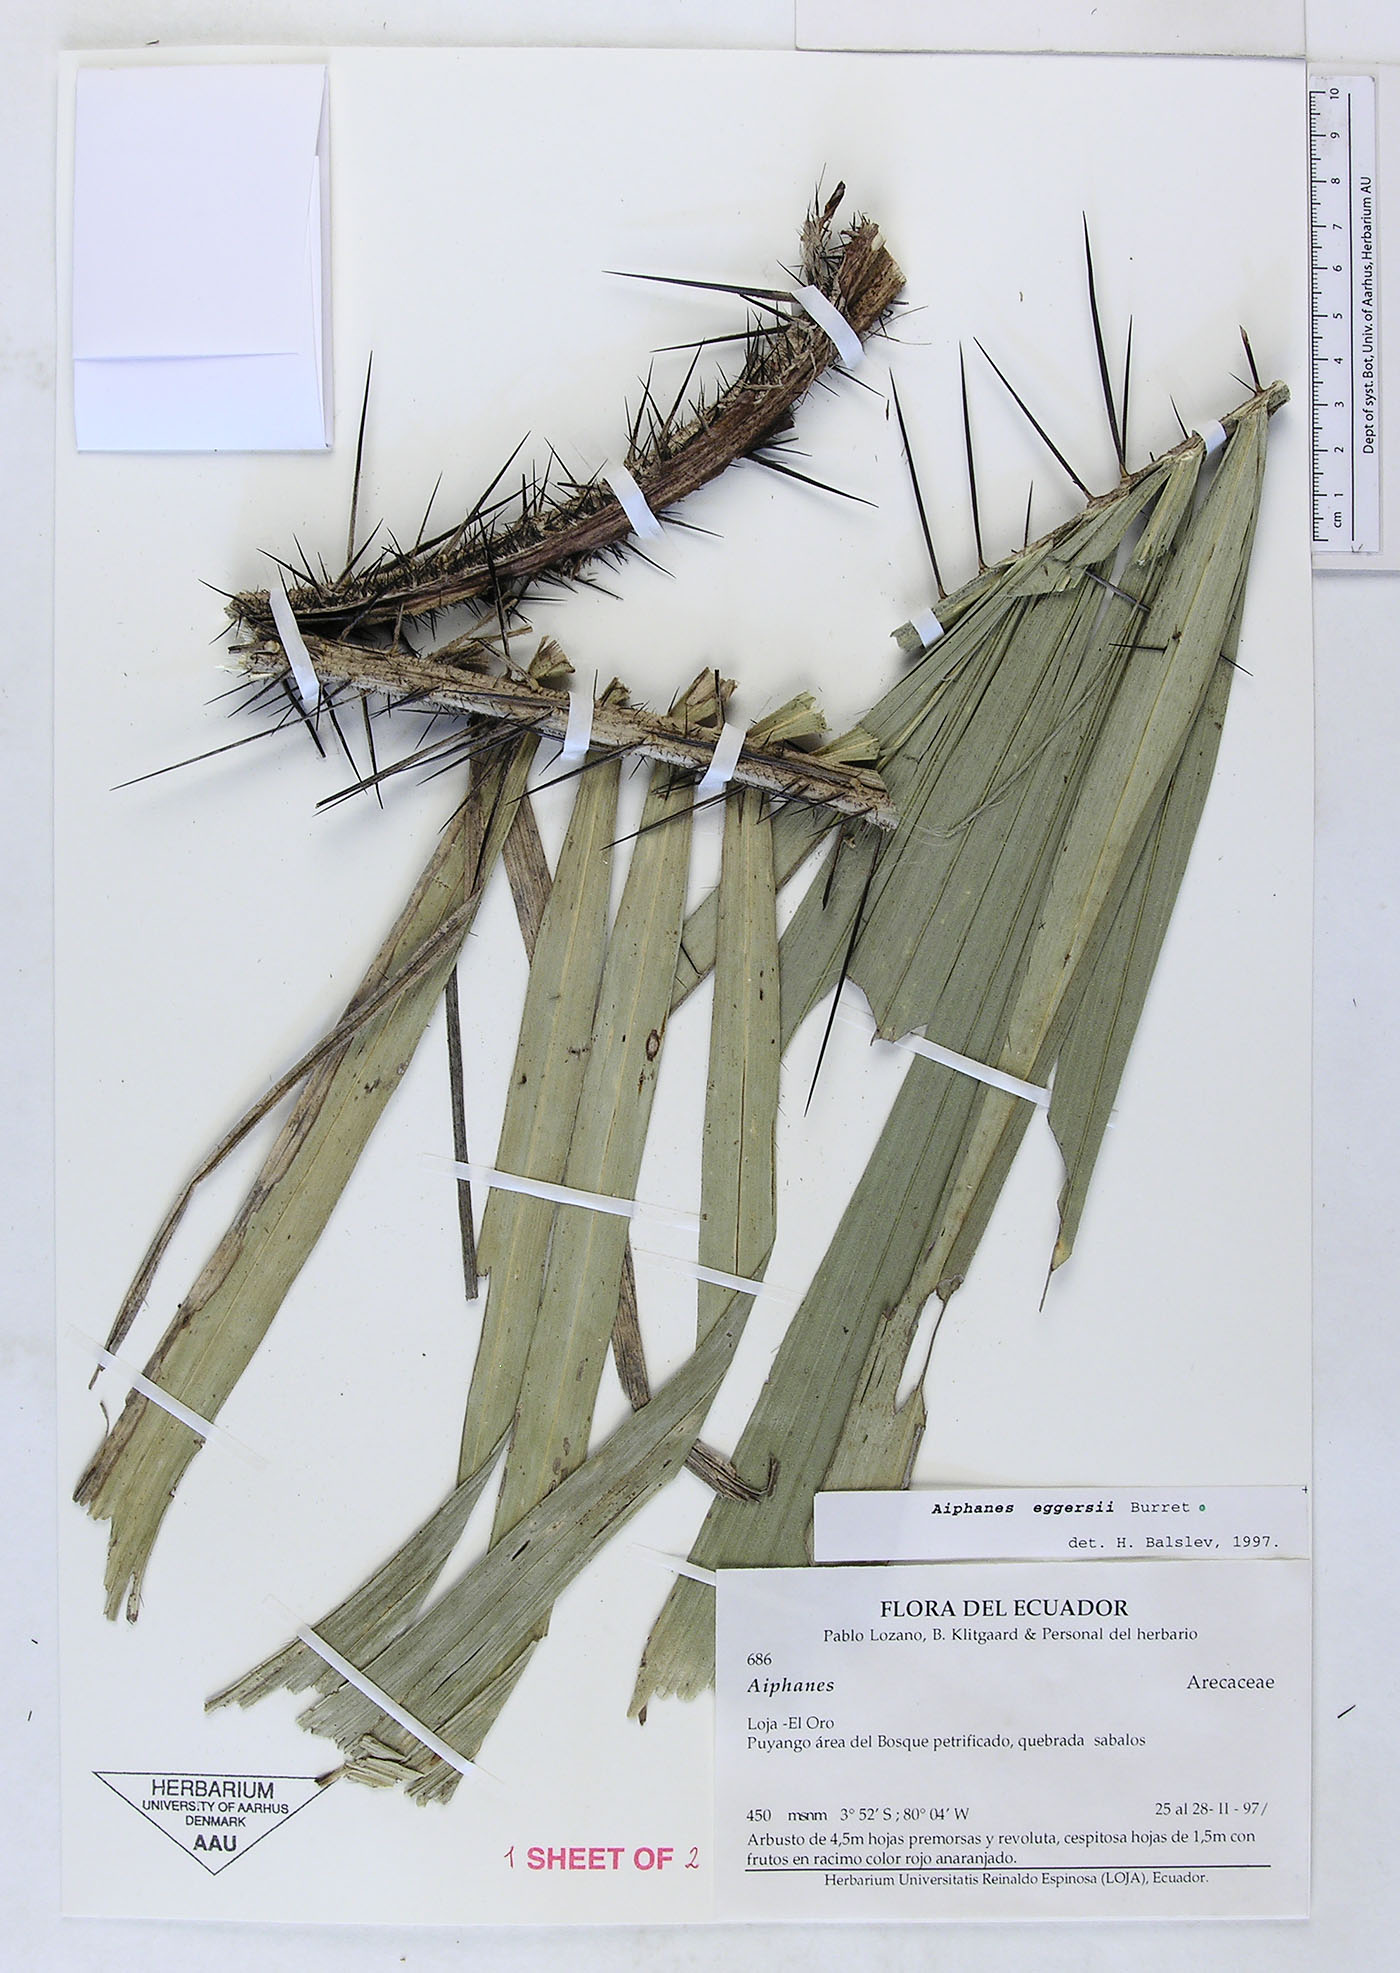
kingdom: Plantae
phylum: Tracheophyta
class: Liliopsida
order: Arecales
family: Arecaceae
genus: Aiphanes
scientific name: Aiphanes eggersii
